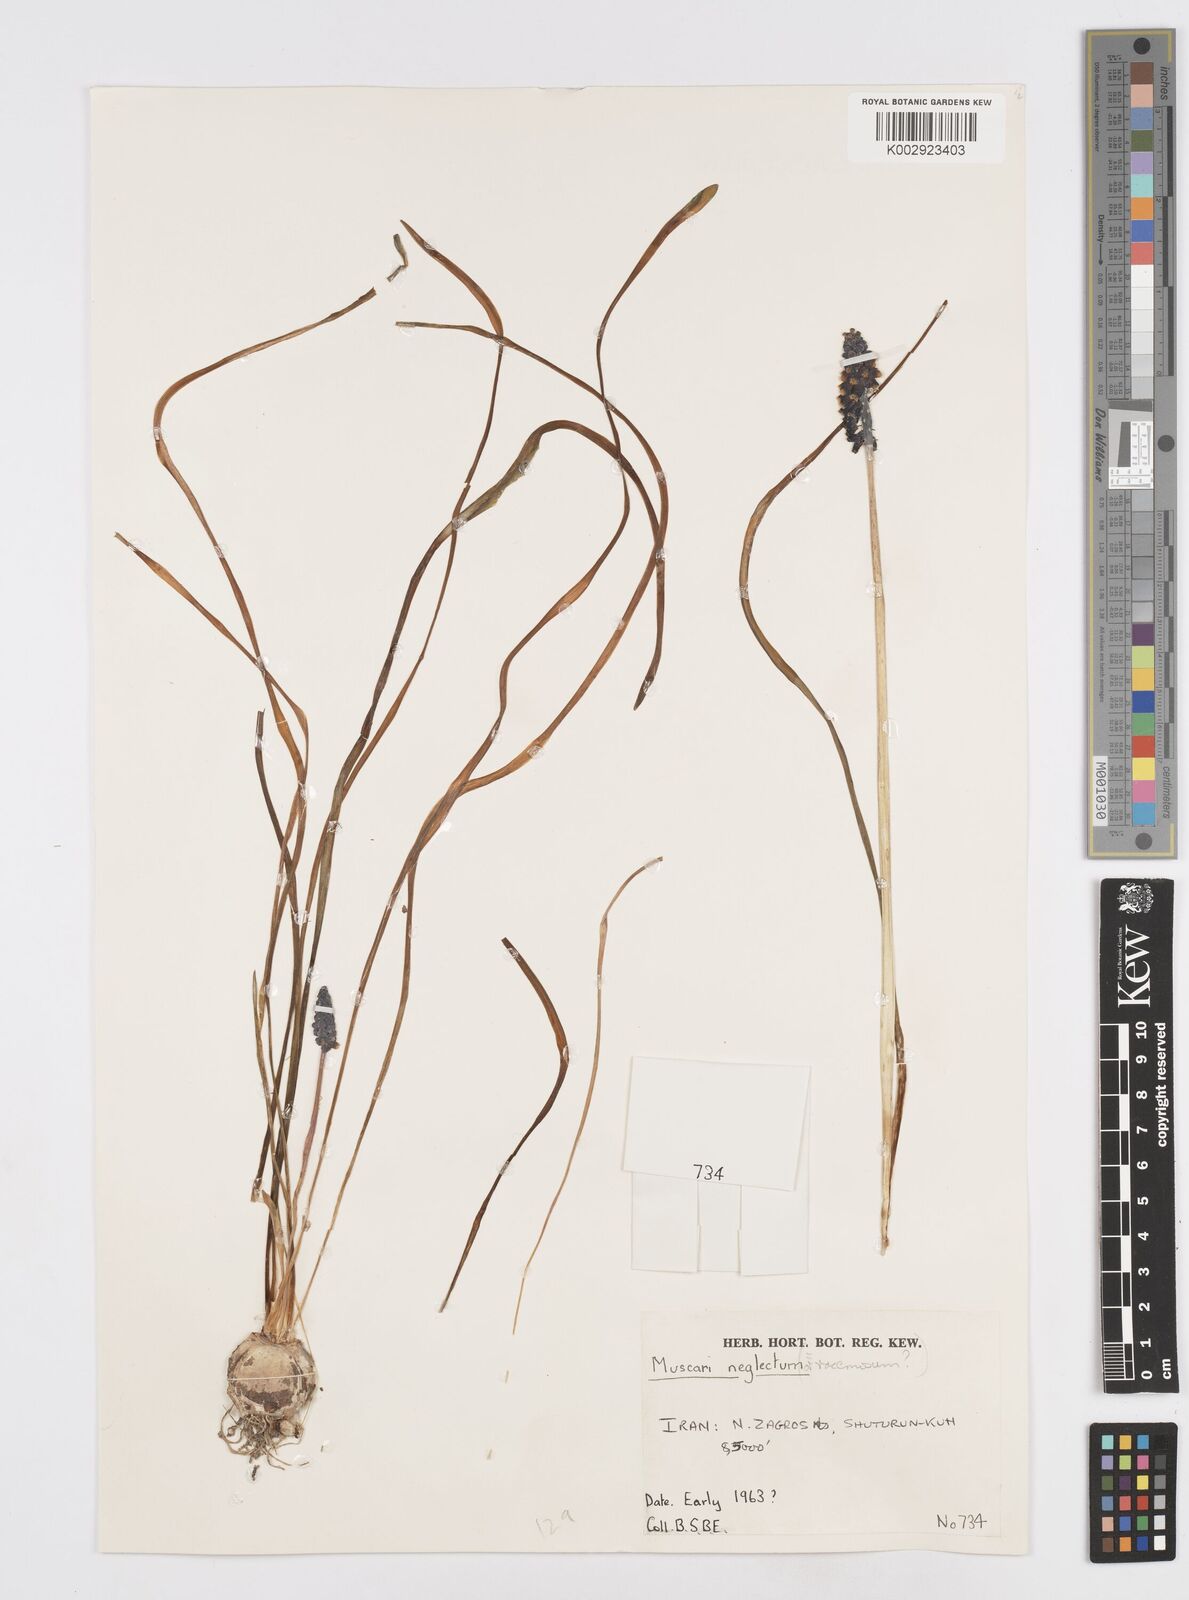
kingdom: Plantae
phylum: Tracheophyta
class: Liliopsida
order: Asparagales
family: Asparagaceae
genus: Muscari
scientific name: Muscari neglectum
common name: Grape-hyacinth
